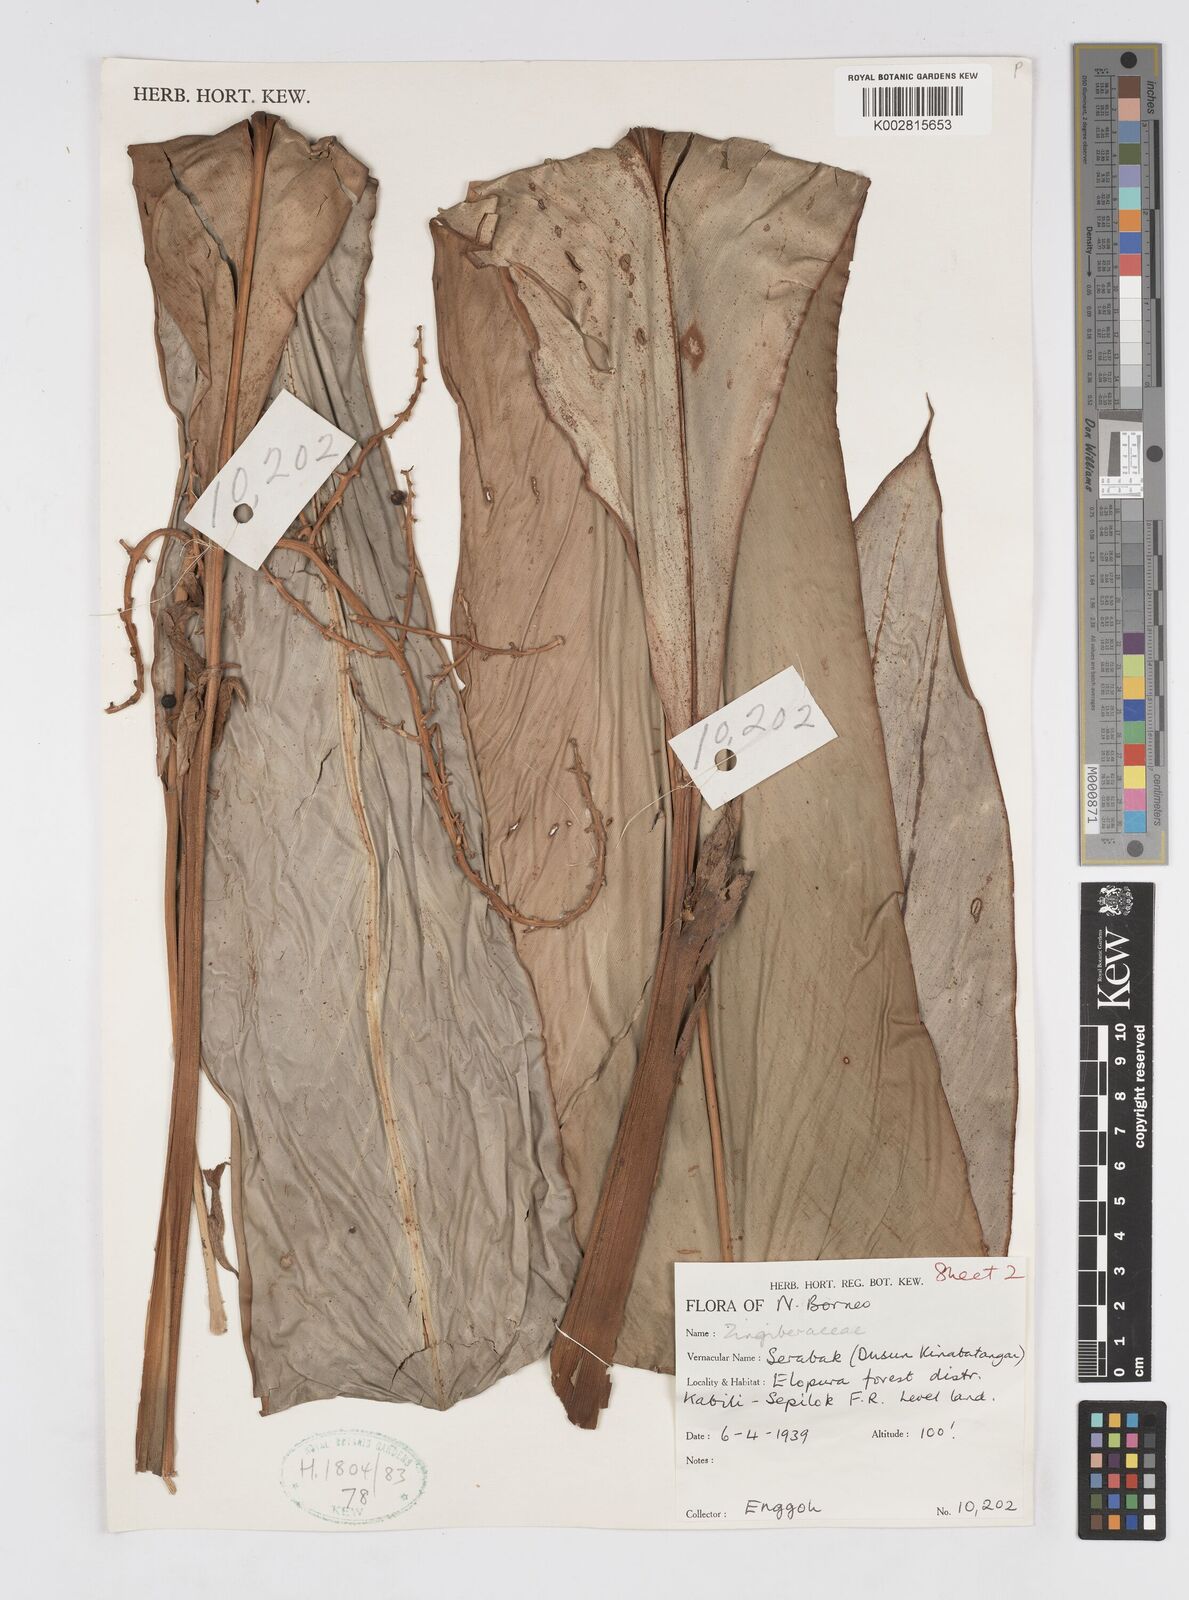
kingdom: Plantae
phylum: Tracheophyta
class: Liliopsida
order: Zingiberales
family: Zingiberaceae
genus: Alpinia
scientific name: Alpinia ligulata
